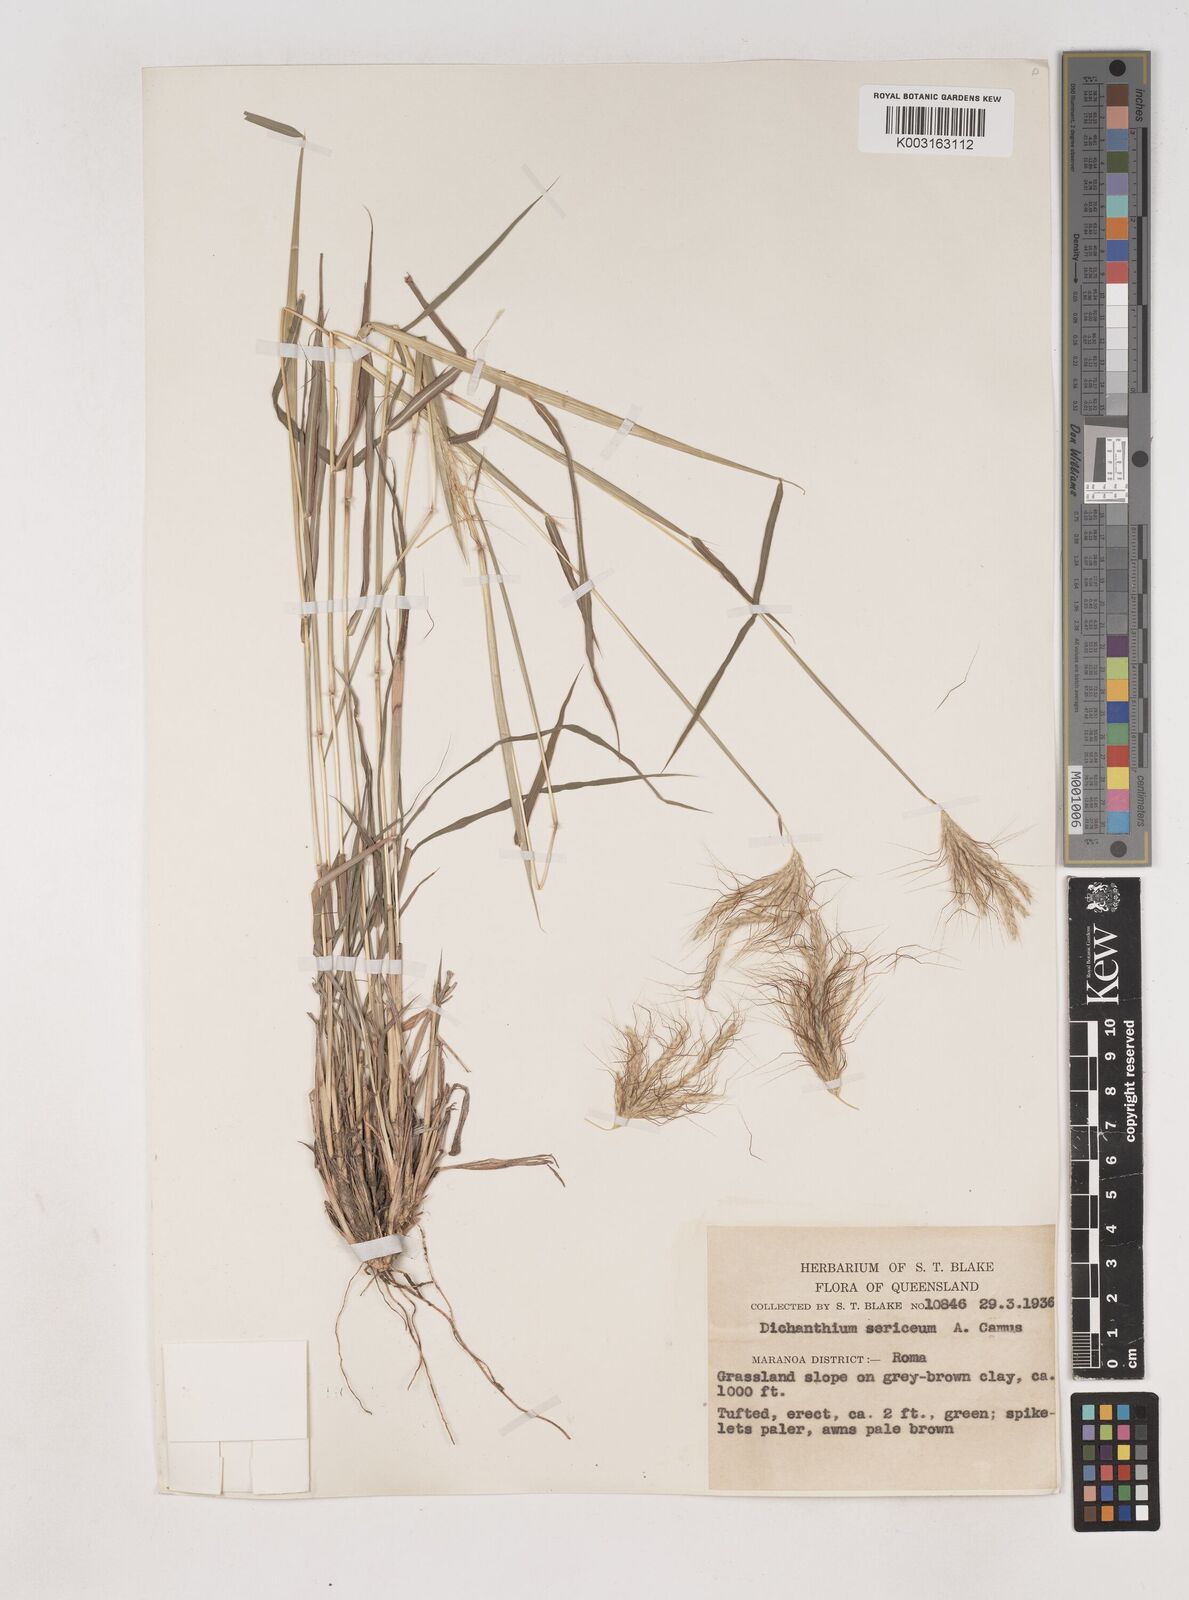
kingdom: Plantae
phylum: Tracheophyta
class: Liliopsida
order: Poales
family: Poaceae
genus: Dichanthium
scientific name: Dichanthium sericeum
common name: Silky bluestem
